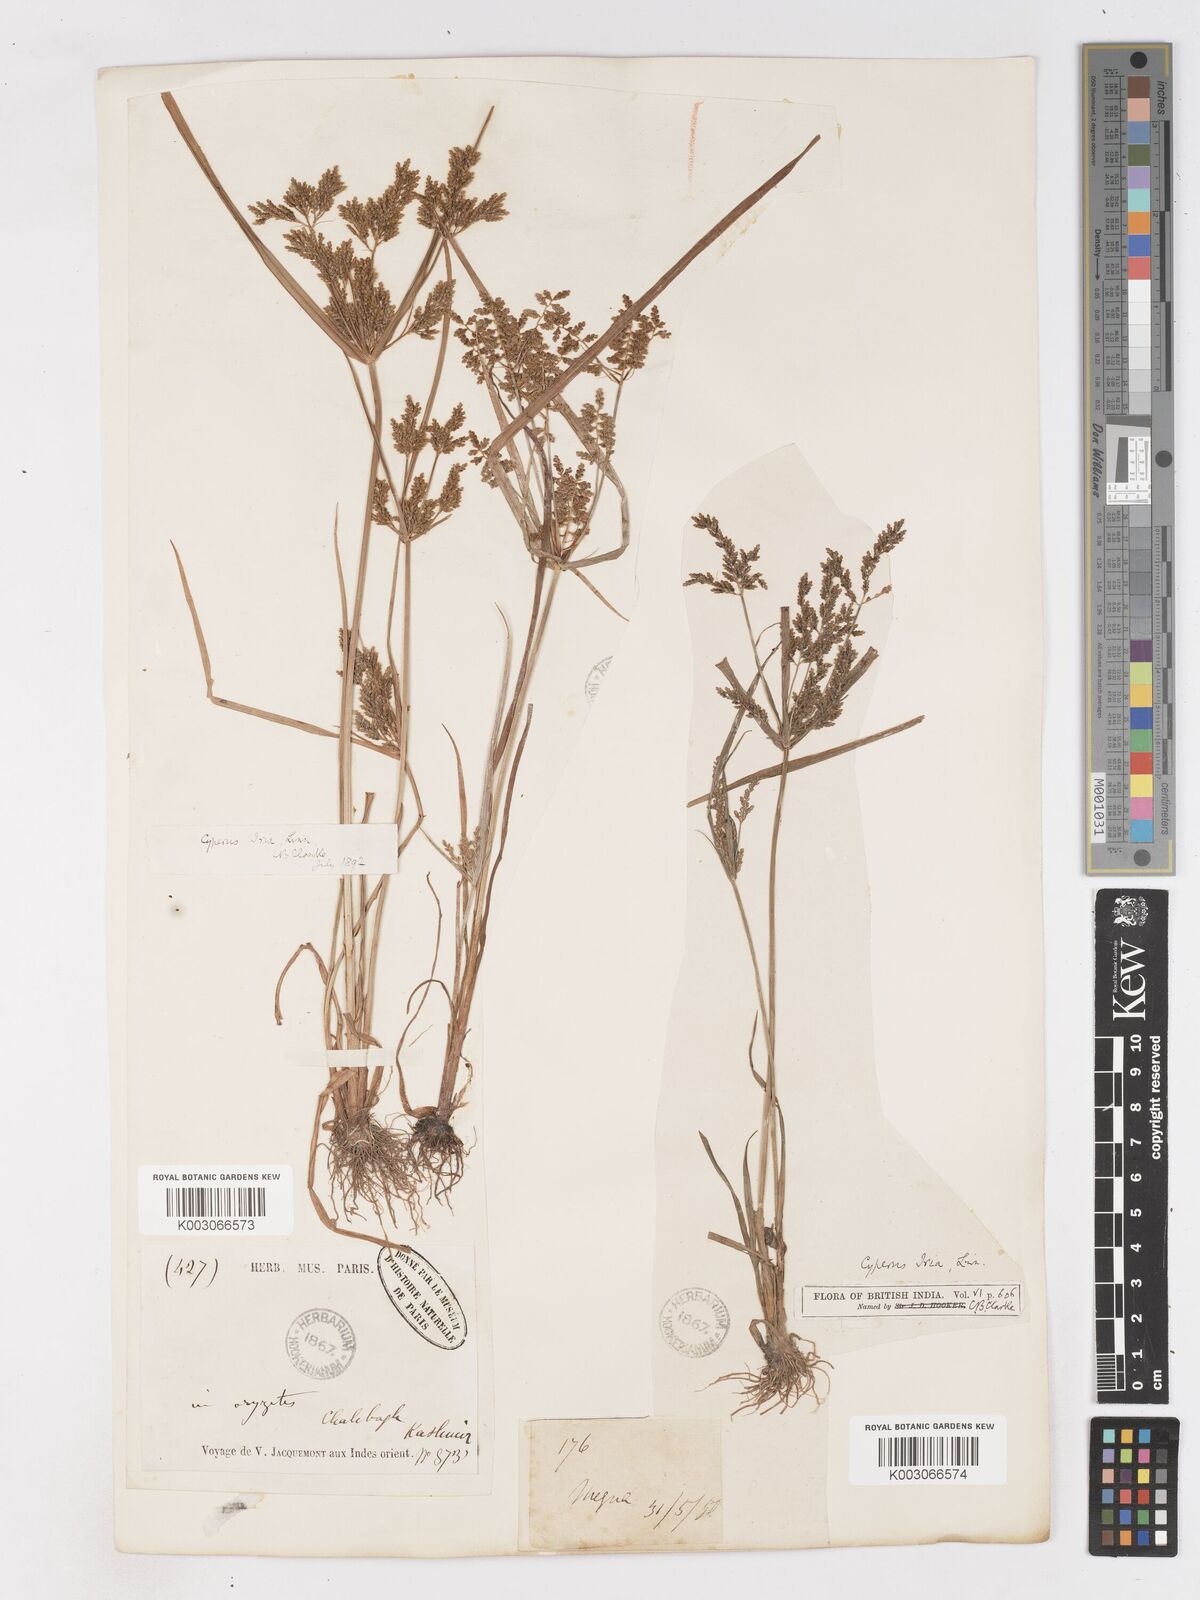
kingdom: Plantae
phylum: Tracheophyta
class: Liliopsida
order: Poales
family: Cyperaceae
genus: Cyperus
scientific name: Cyperus alulatus
